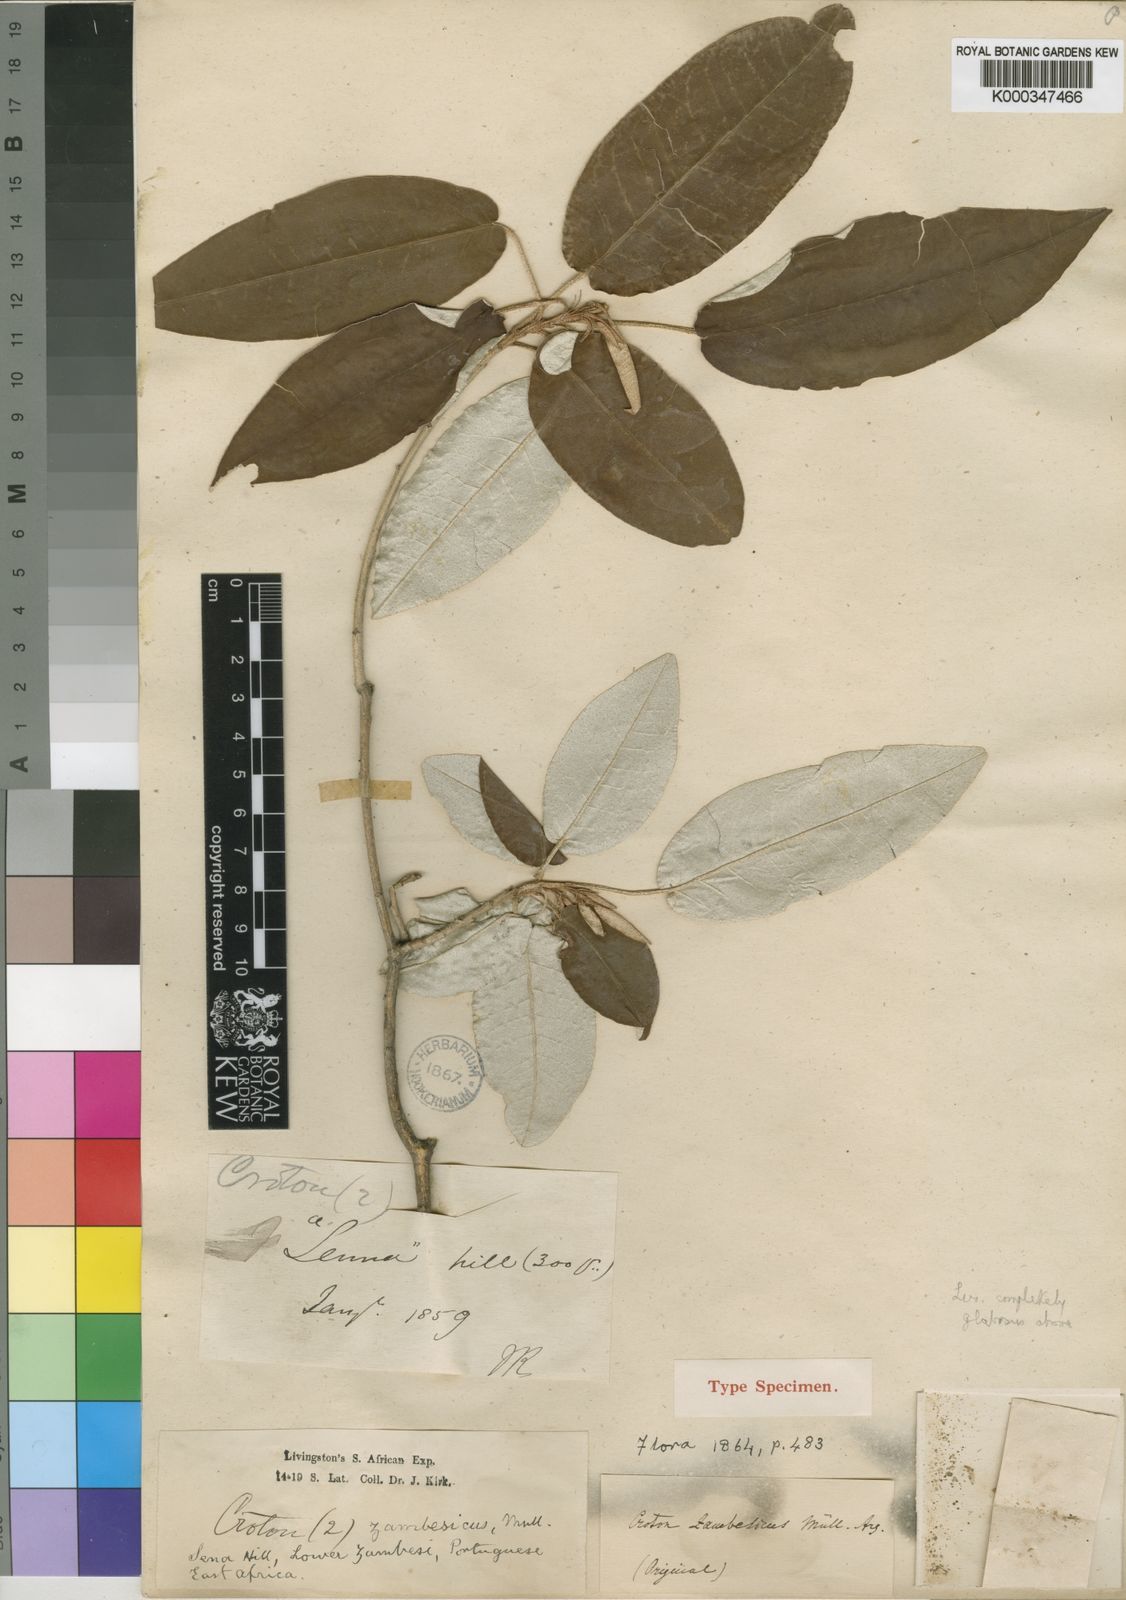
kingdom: Plantae
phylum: Tracheophyta
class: Magnoliopsida
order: Malpighiales
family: Euphorbiaceae
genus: Croton
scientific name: Croton gratissimus
